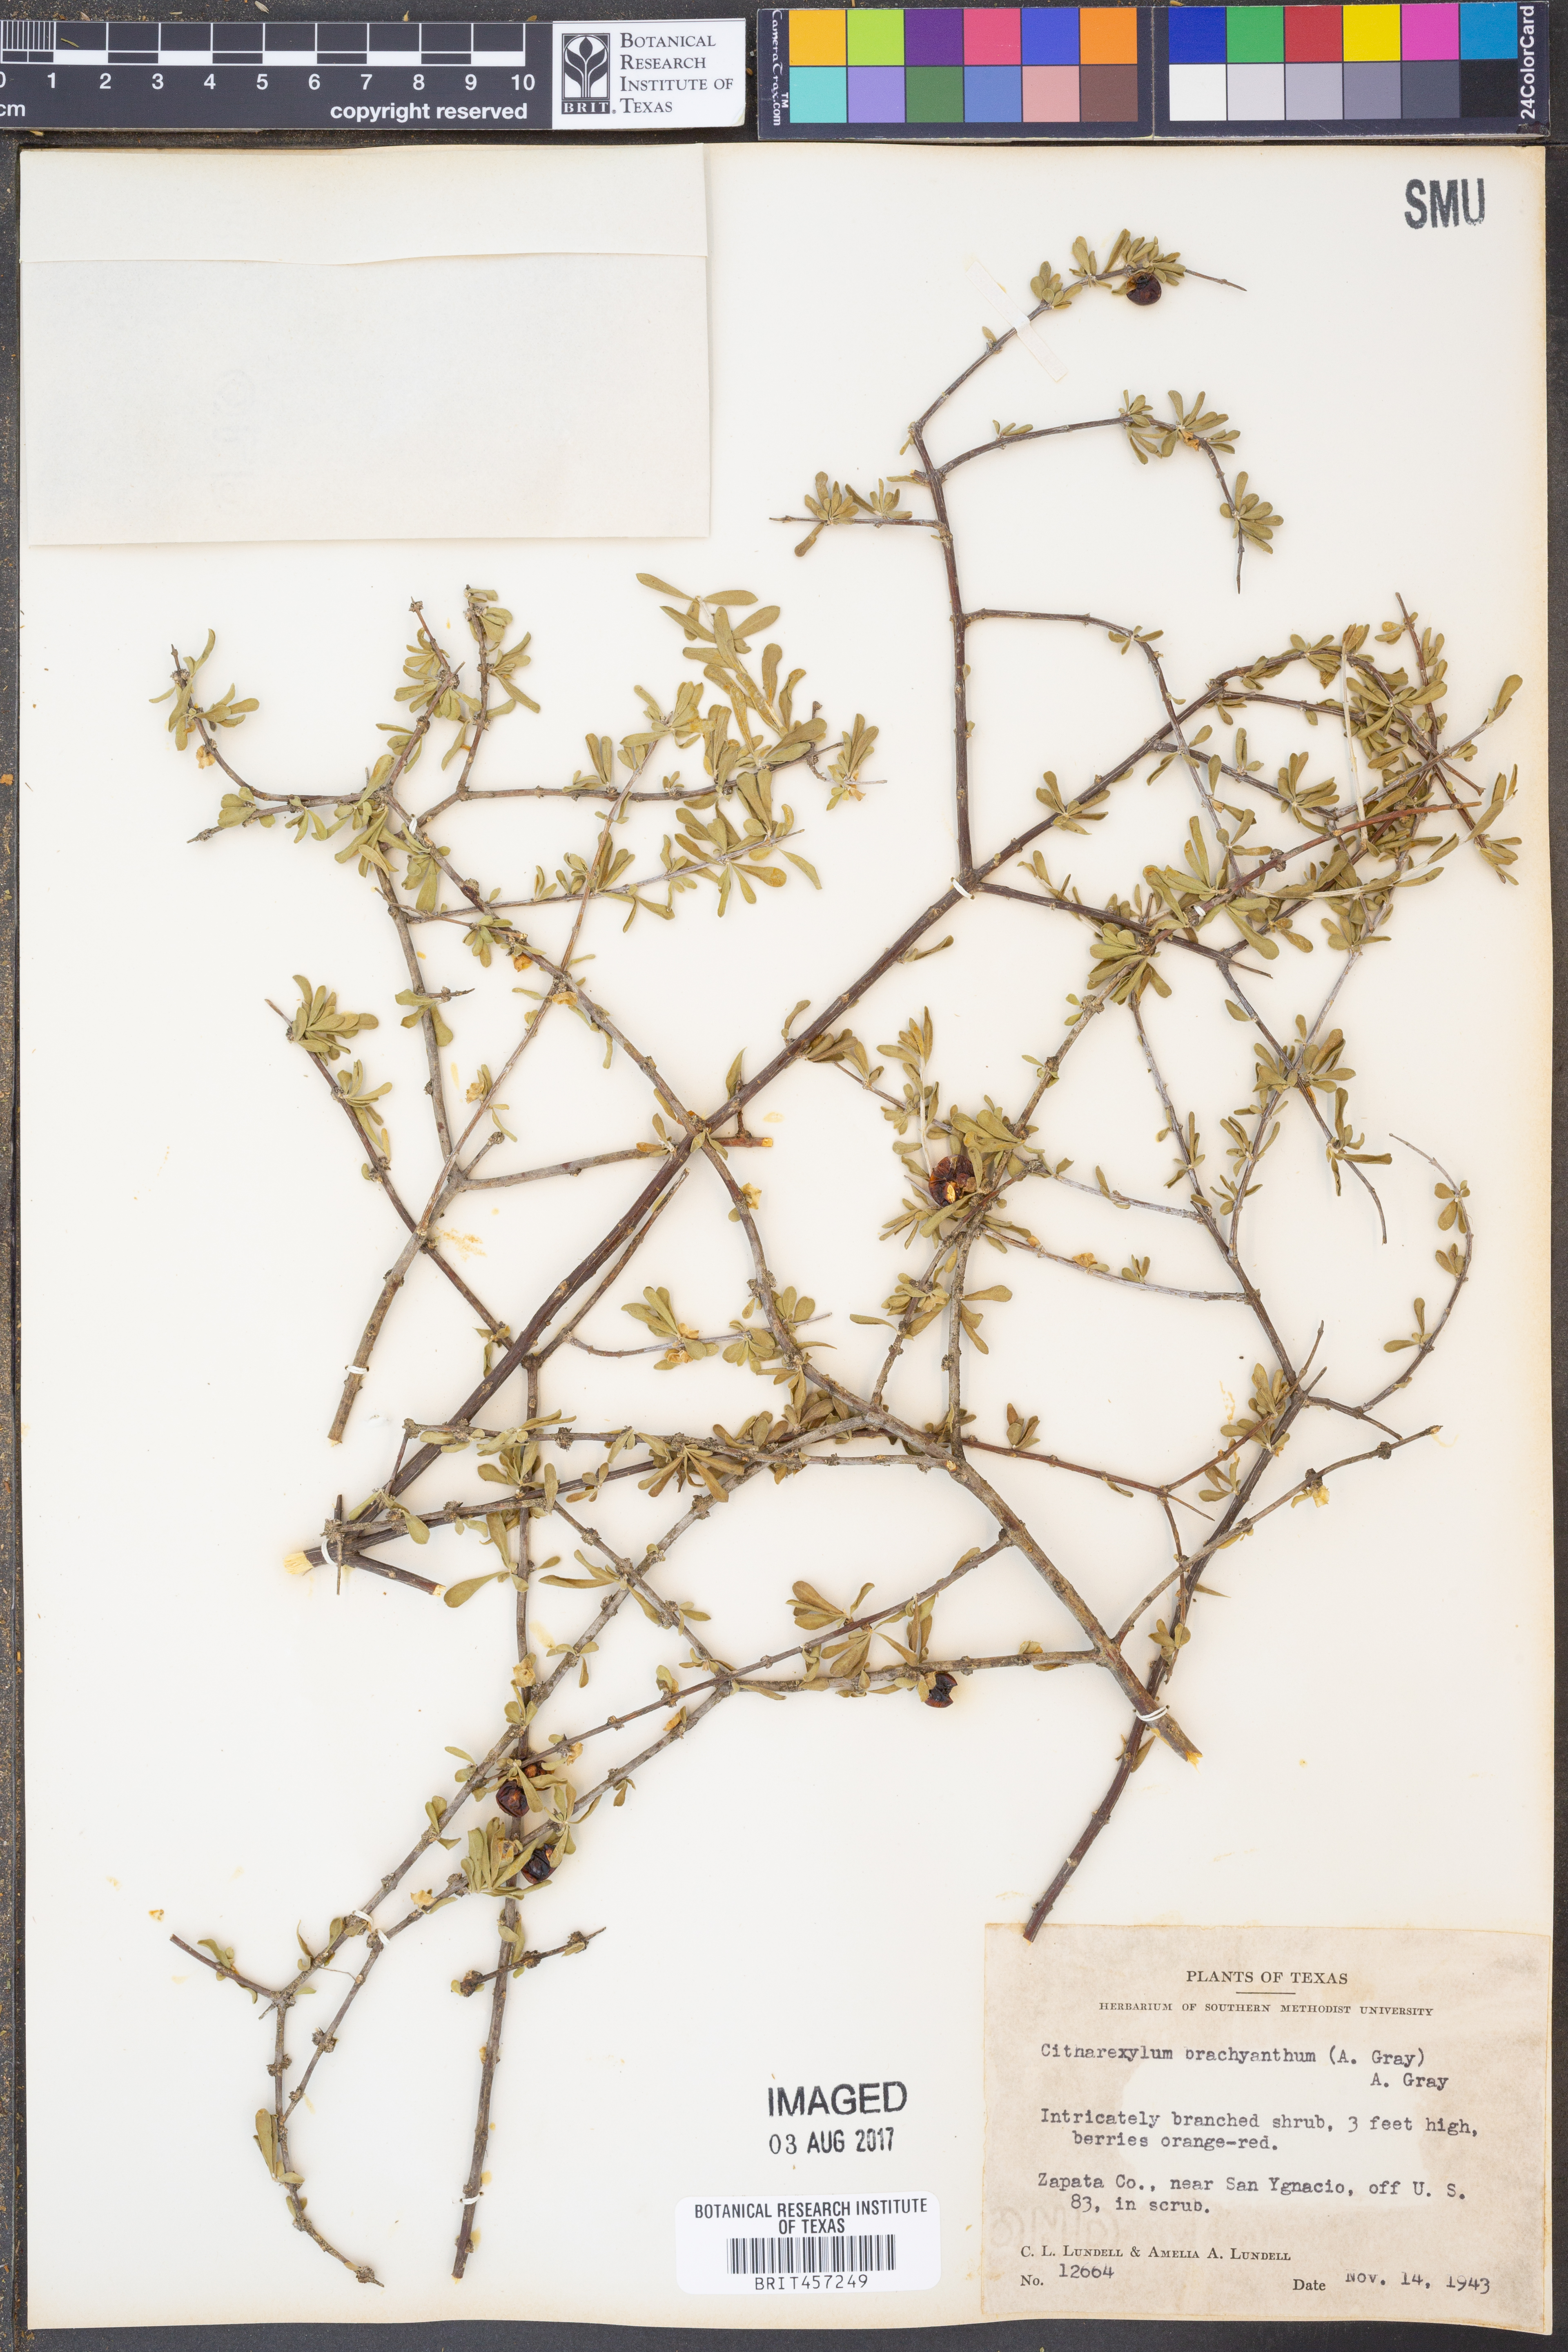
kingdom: Plantae
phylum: Tracheophyta
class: Magnoliopsida
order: Lamiales
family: Verbenaceae
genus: Citharexylum
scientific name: Citharexylum brachyanthum
